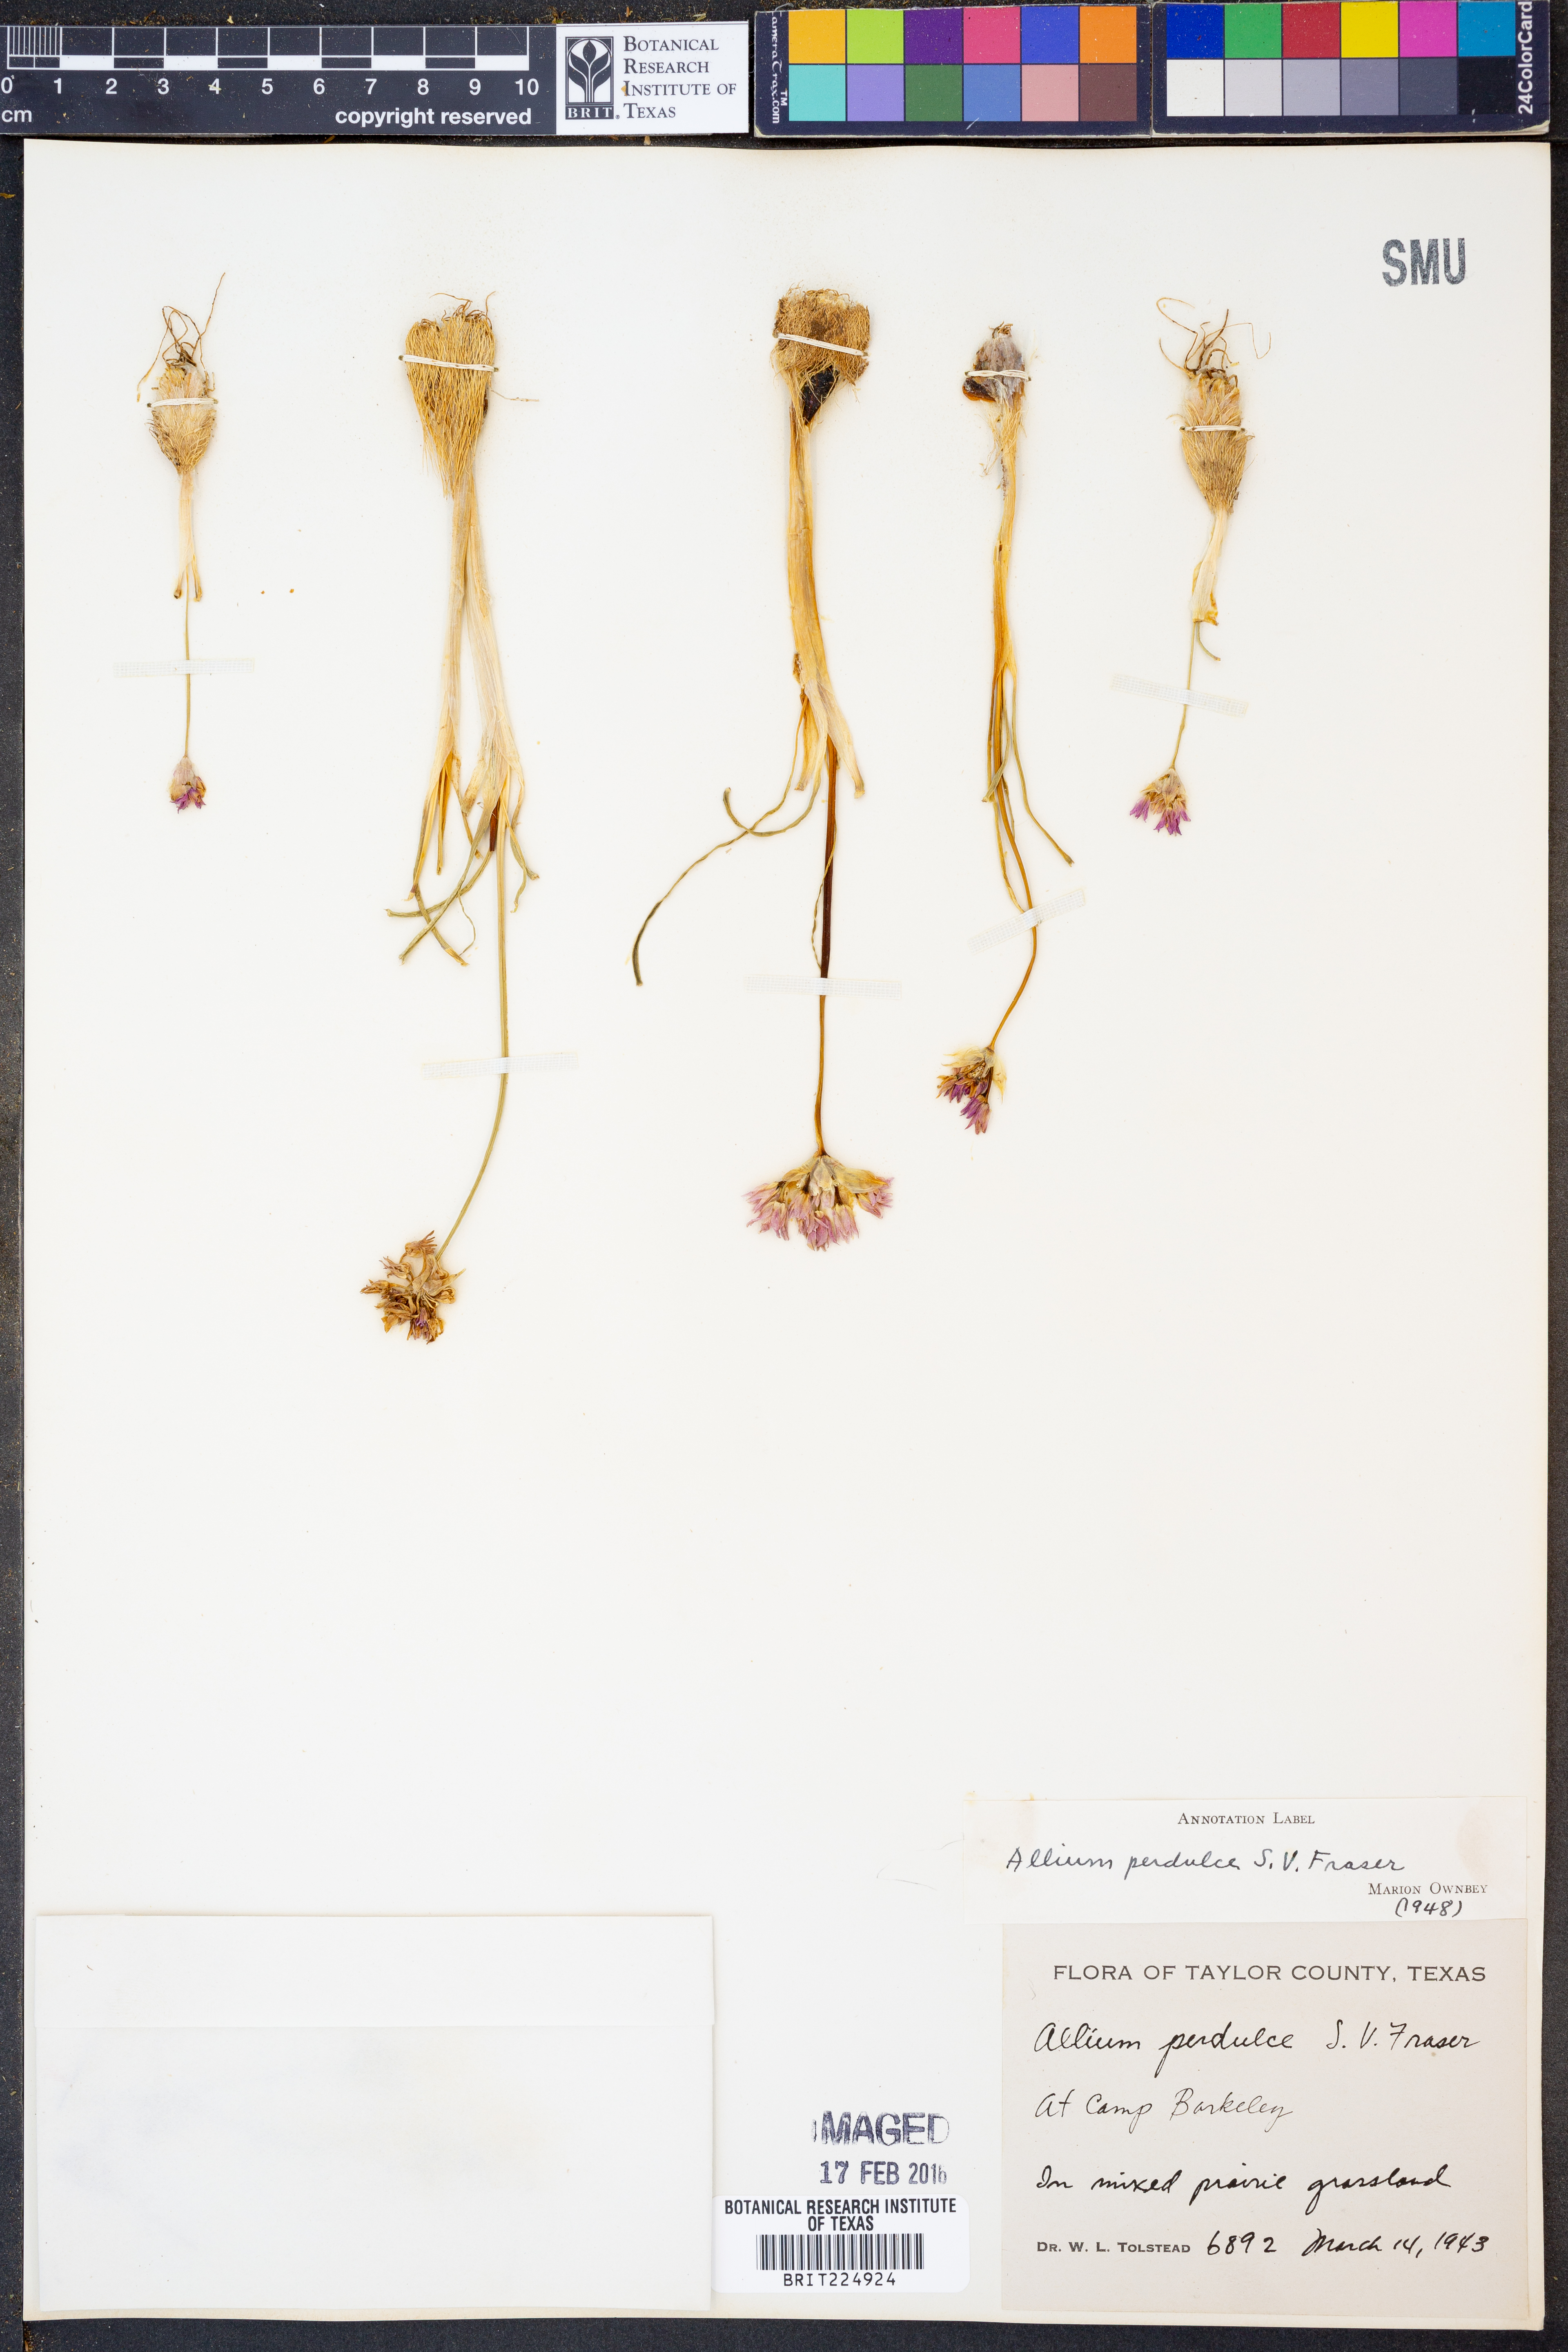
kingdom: Plantae
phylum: Tracheophyta
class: Liliopsida
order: Asparagales
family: Amaryllidaceae
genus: Allium
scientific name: Allium perdulce
